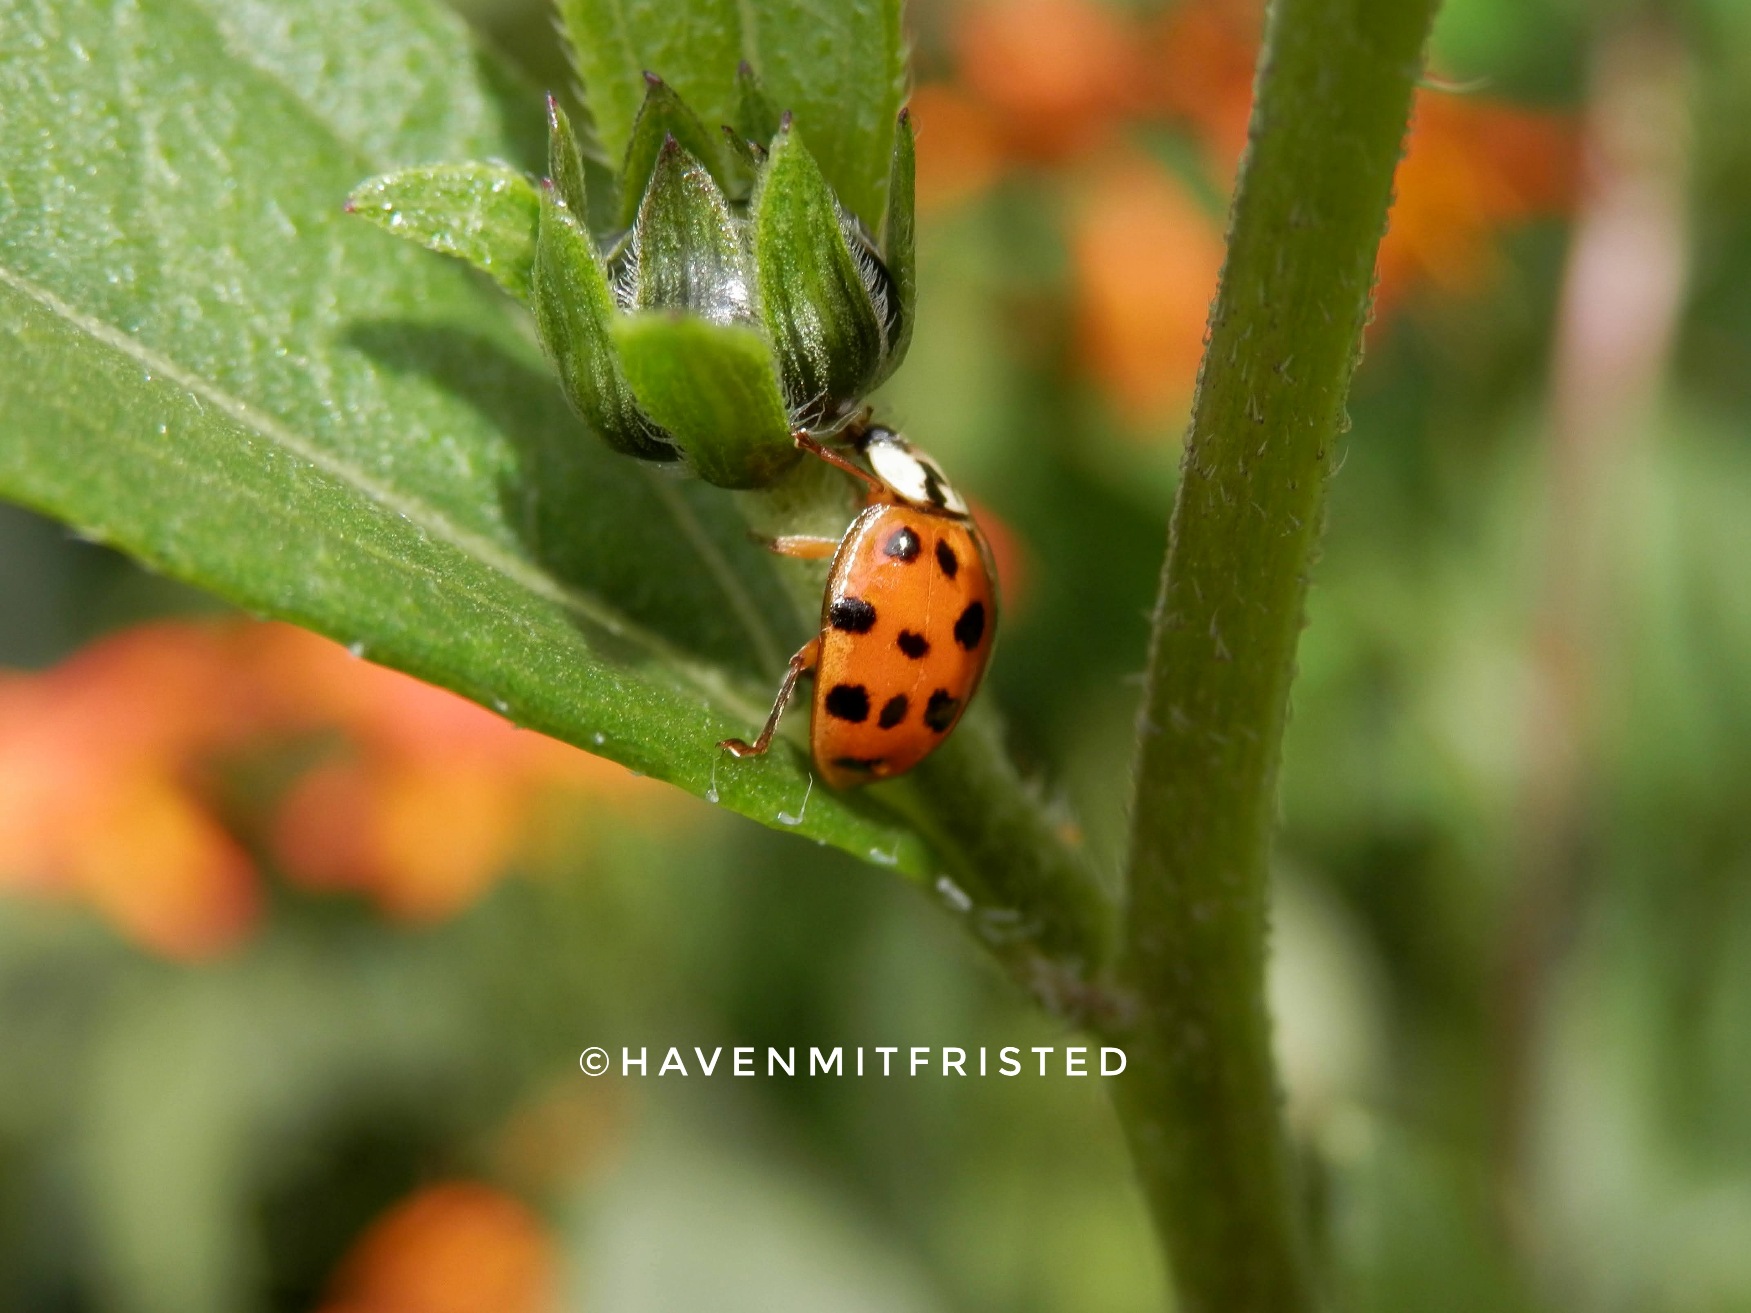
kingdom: Animalia
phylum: Arthropoda
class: Insecta
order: Coleoptera
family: Coccinellidae
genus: Harmonia
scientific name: Harmonia axyridis
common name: Harlekinmariehøne
